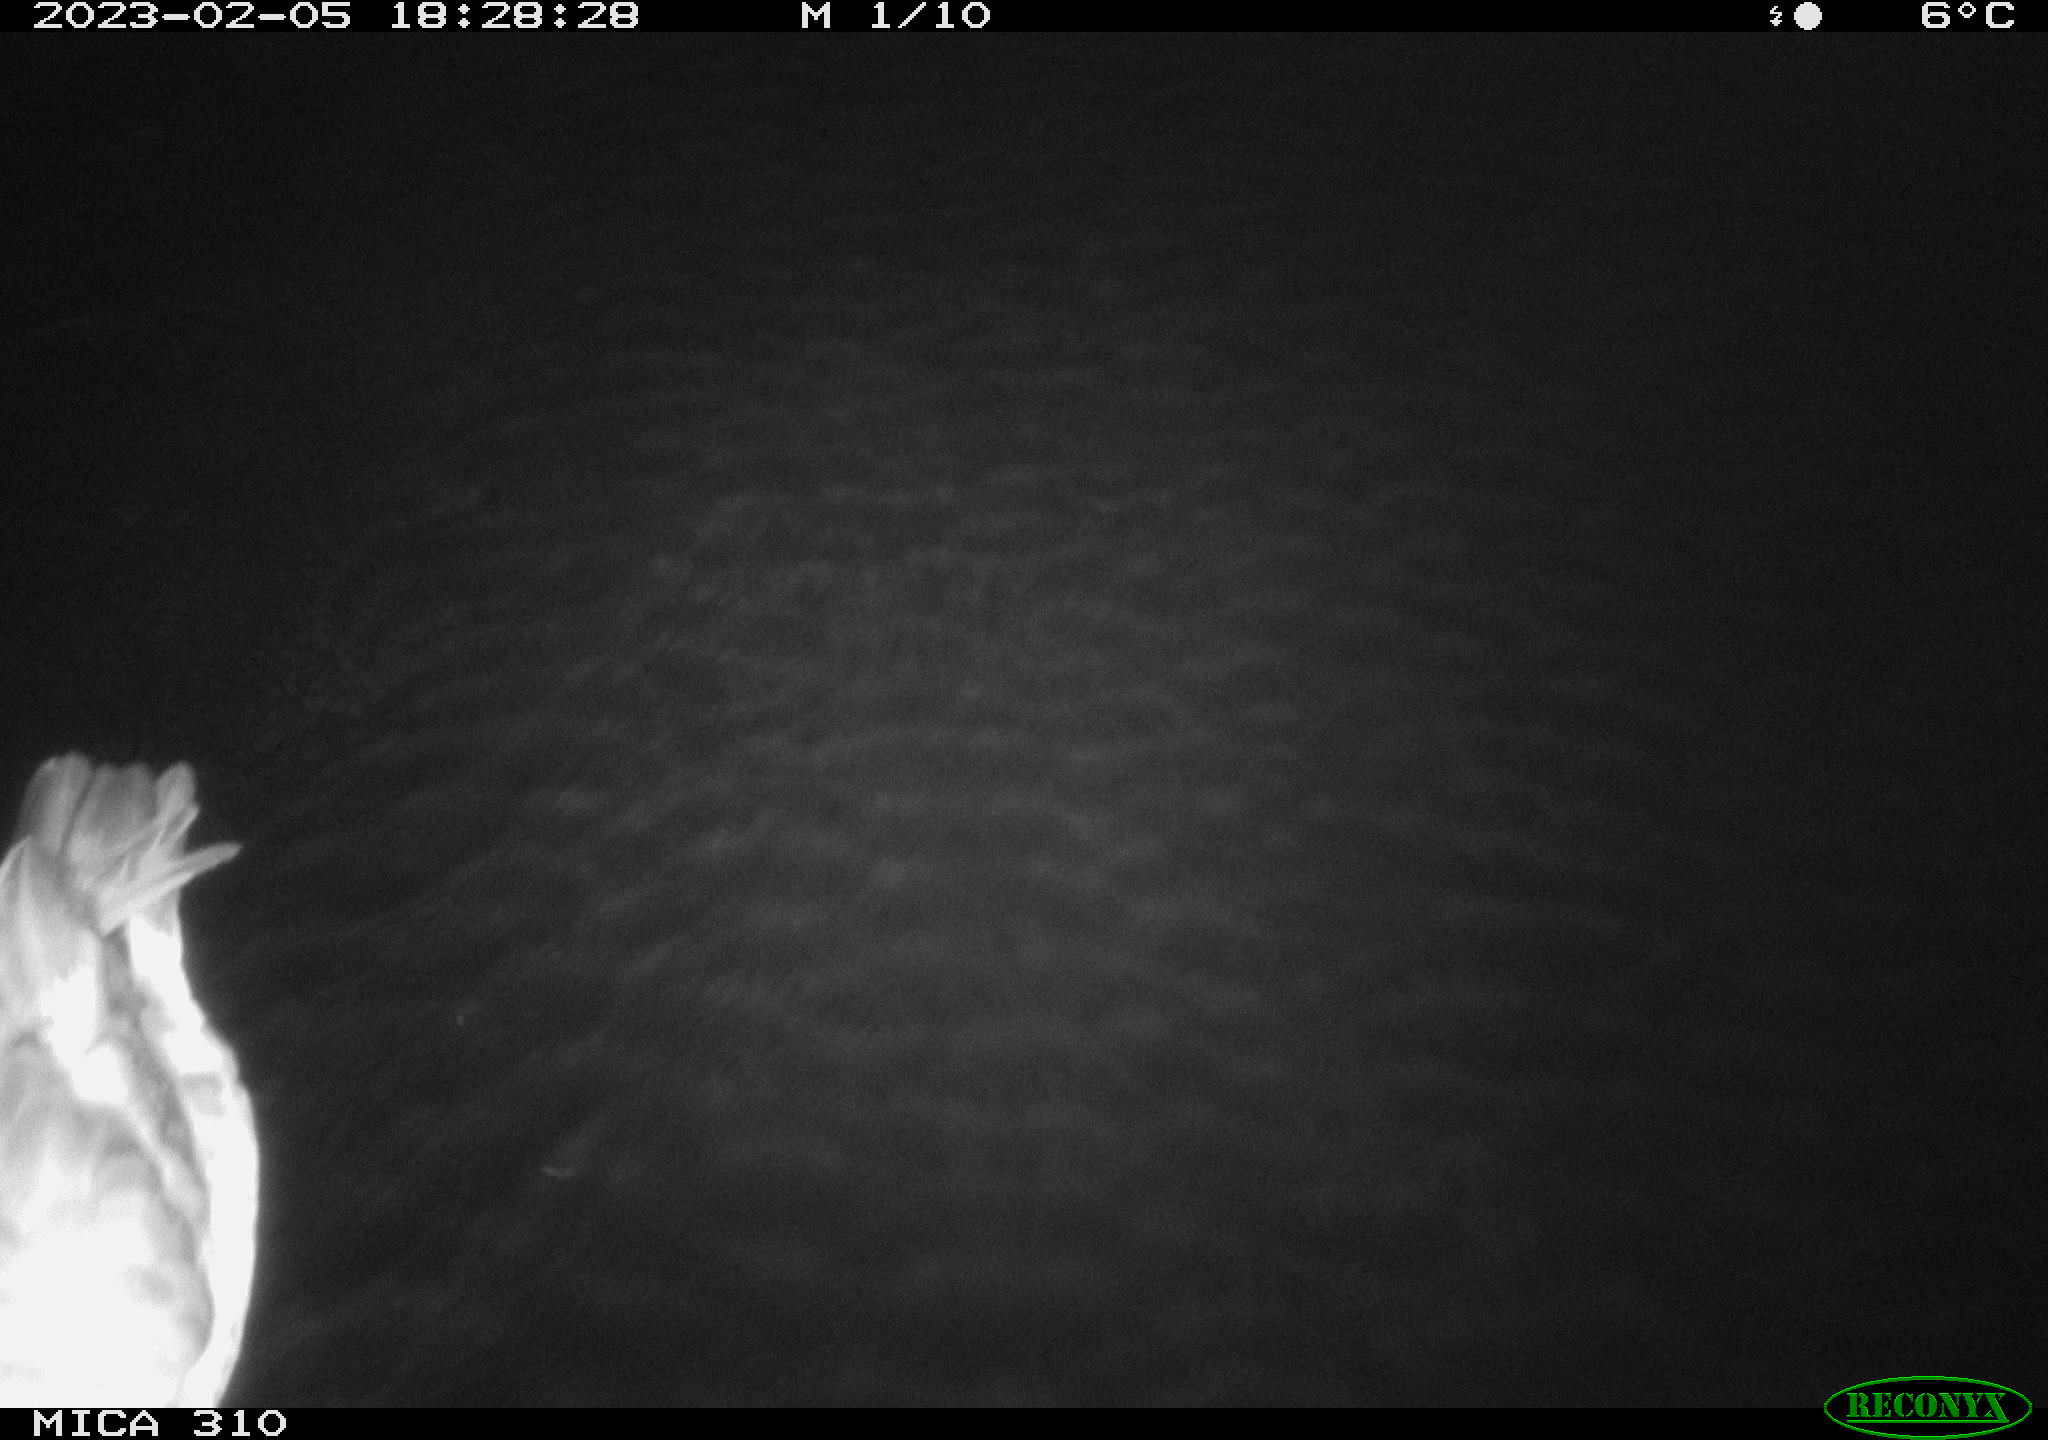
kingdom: Animalia
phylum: Chordata
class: Aves
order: Anseriformes
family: Anatidae
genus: Anas
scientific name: Anas
